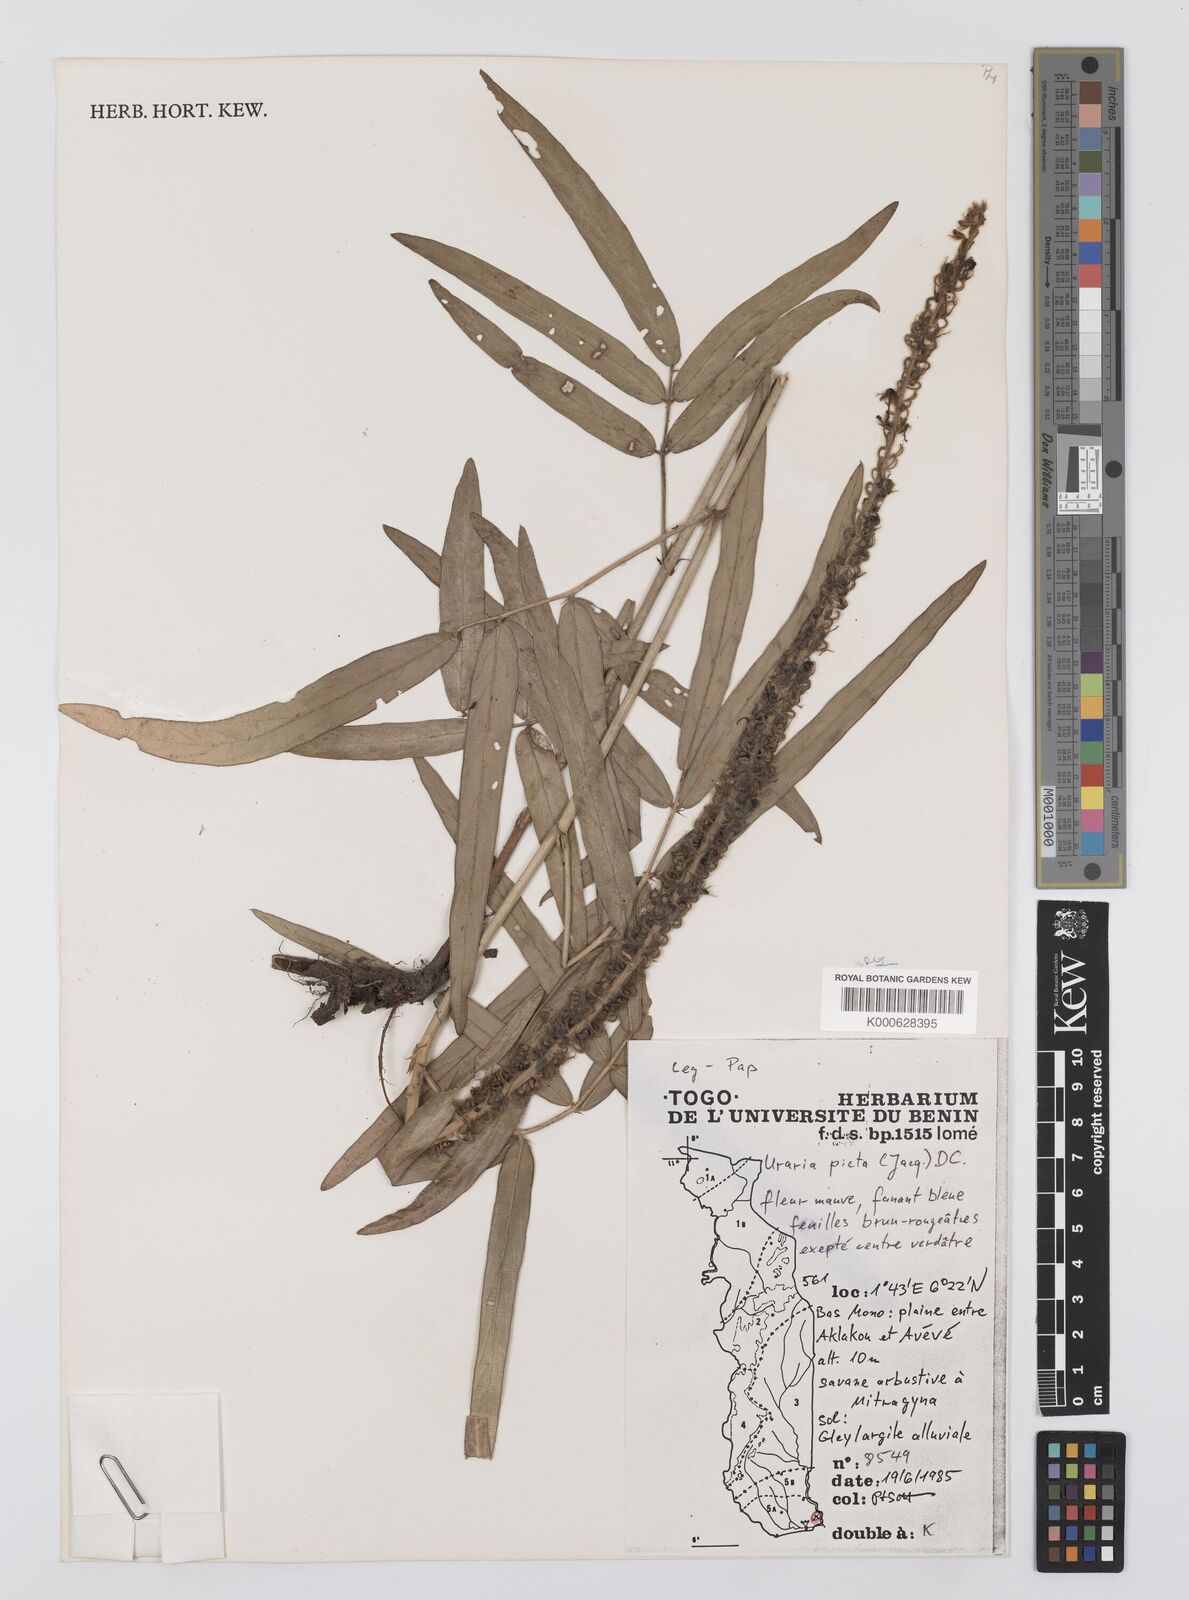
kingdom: Plantae
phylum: Tracheophyta
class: Magnoliopsida
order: Fabales
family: Fabaceae
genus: Uraria
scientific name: Uraria picta
